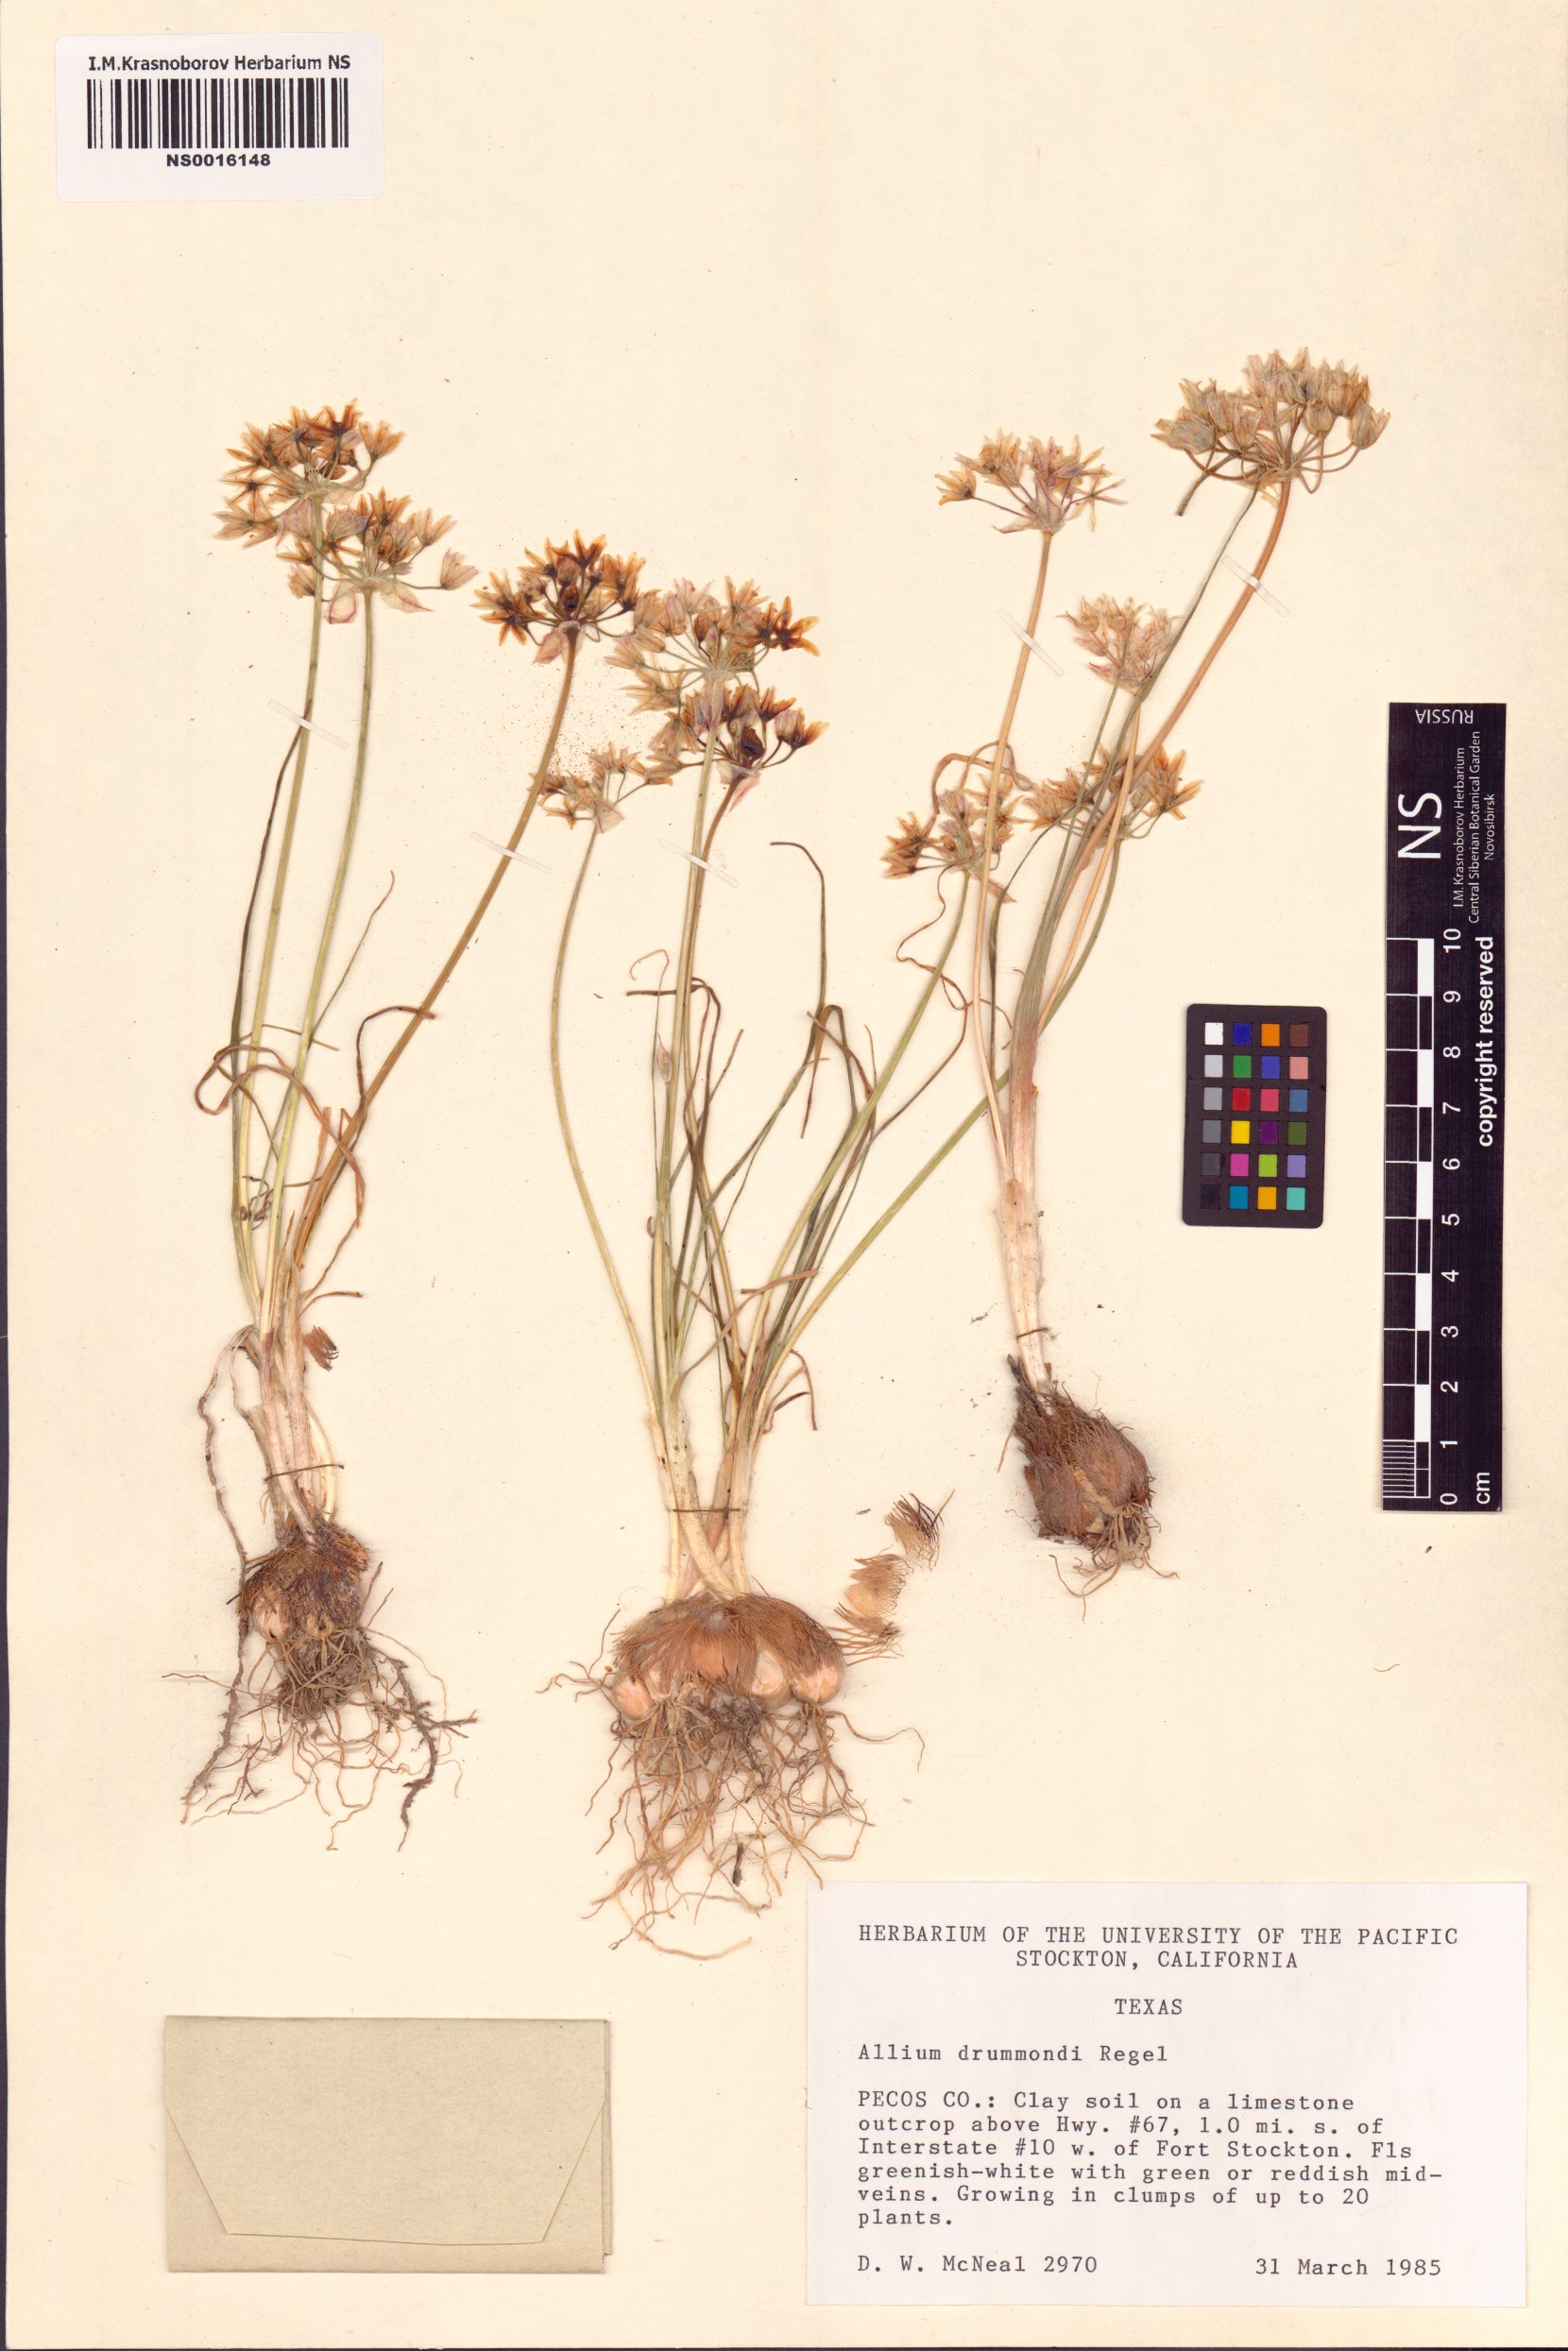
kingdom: Plantae
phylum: Tracheophyta
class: Liliopsida
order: Asparagales
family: Amaryllidaceae
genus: Allium
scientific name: Allium drummondii
